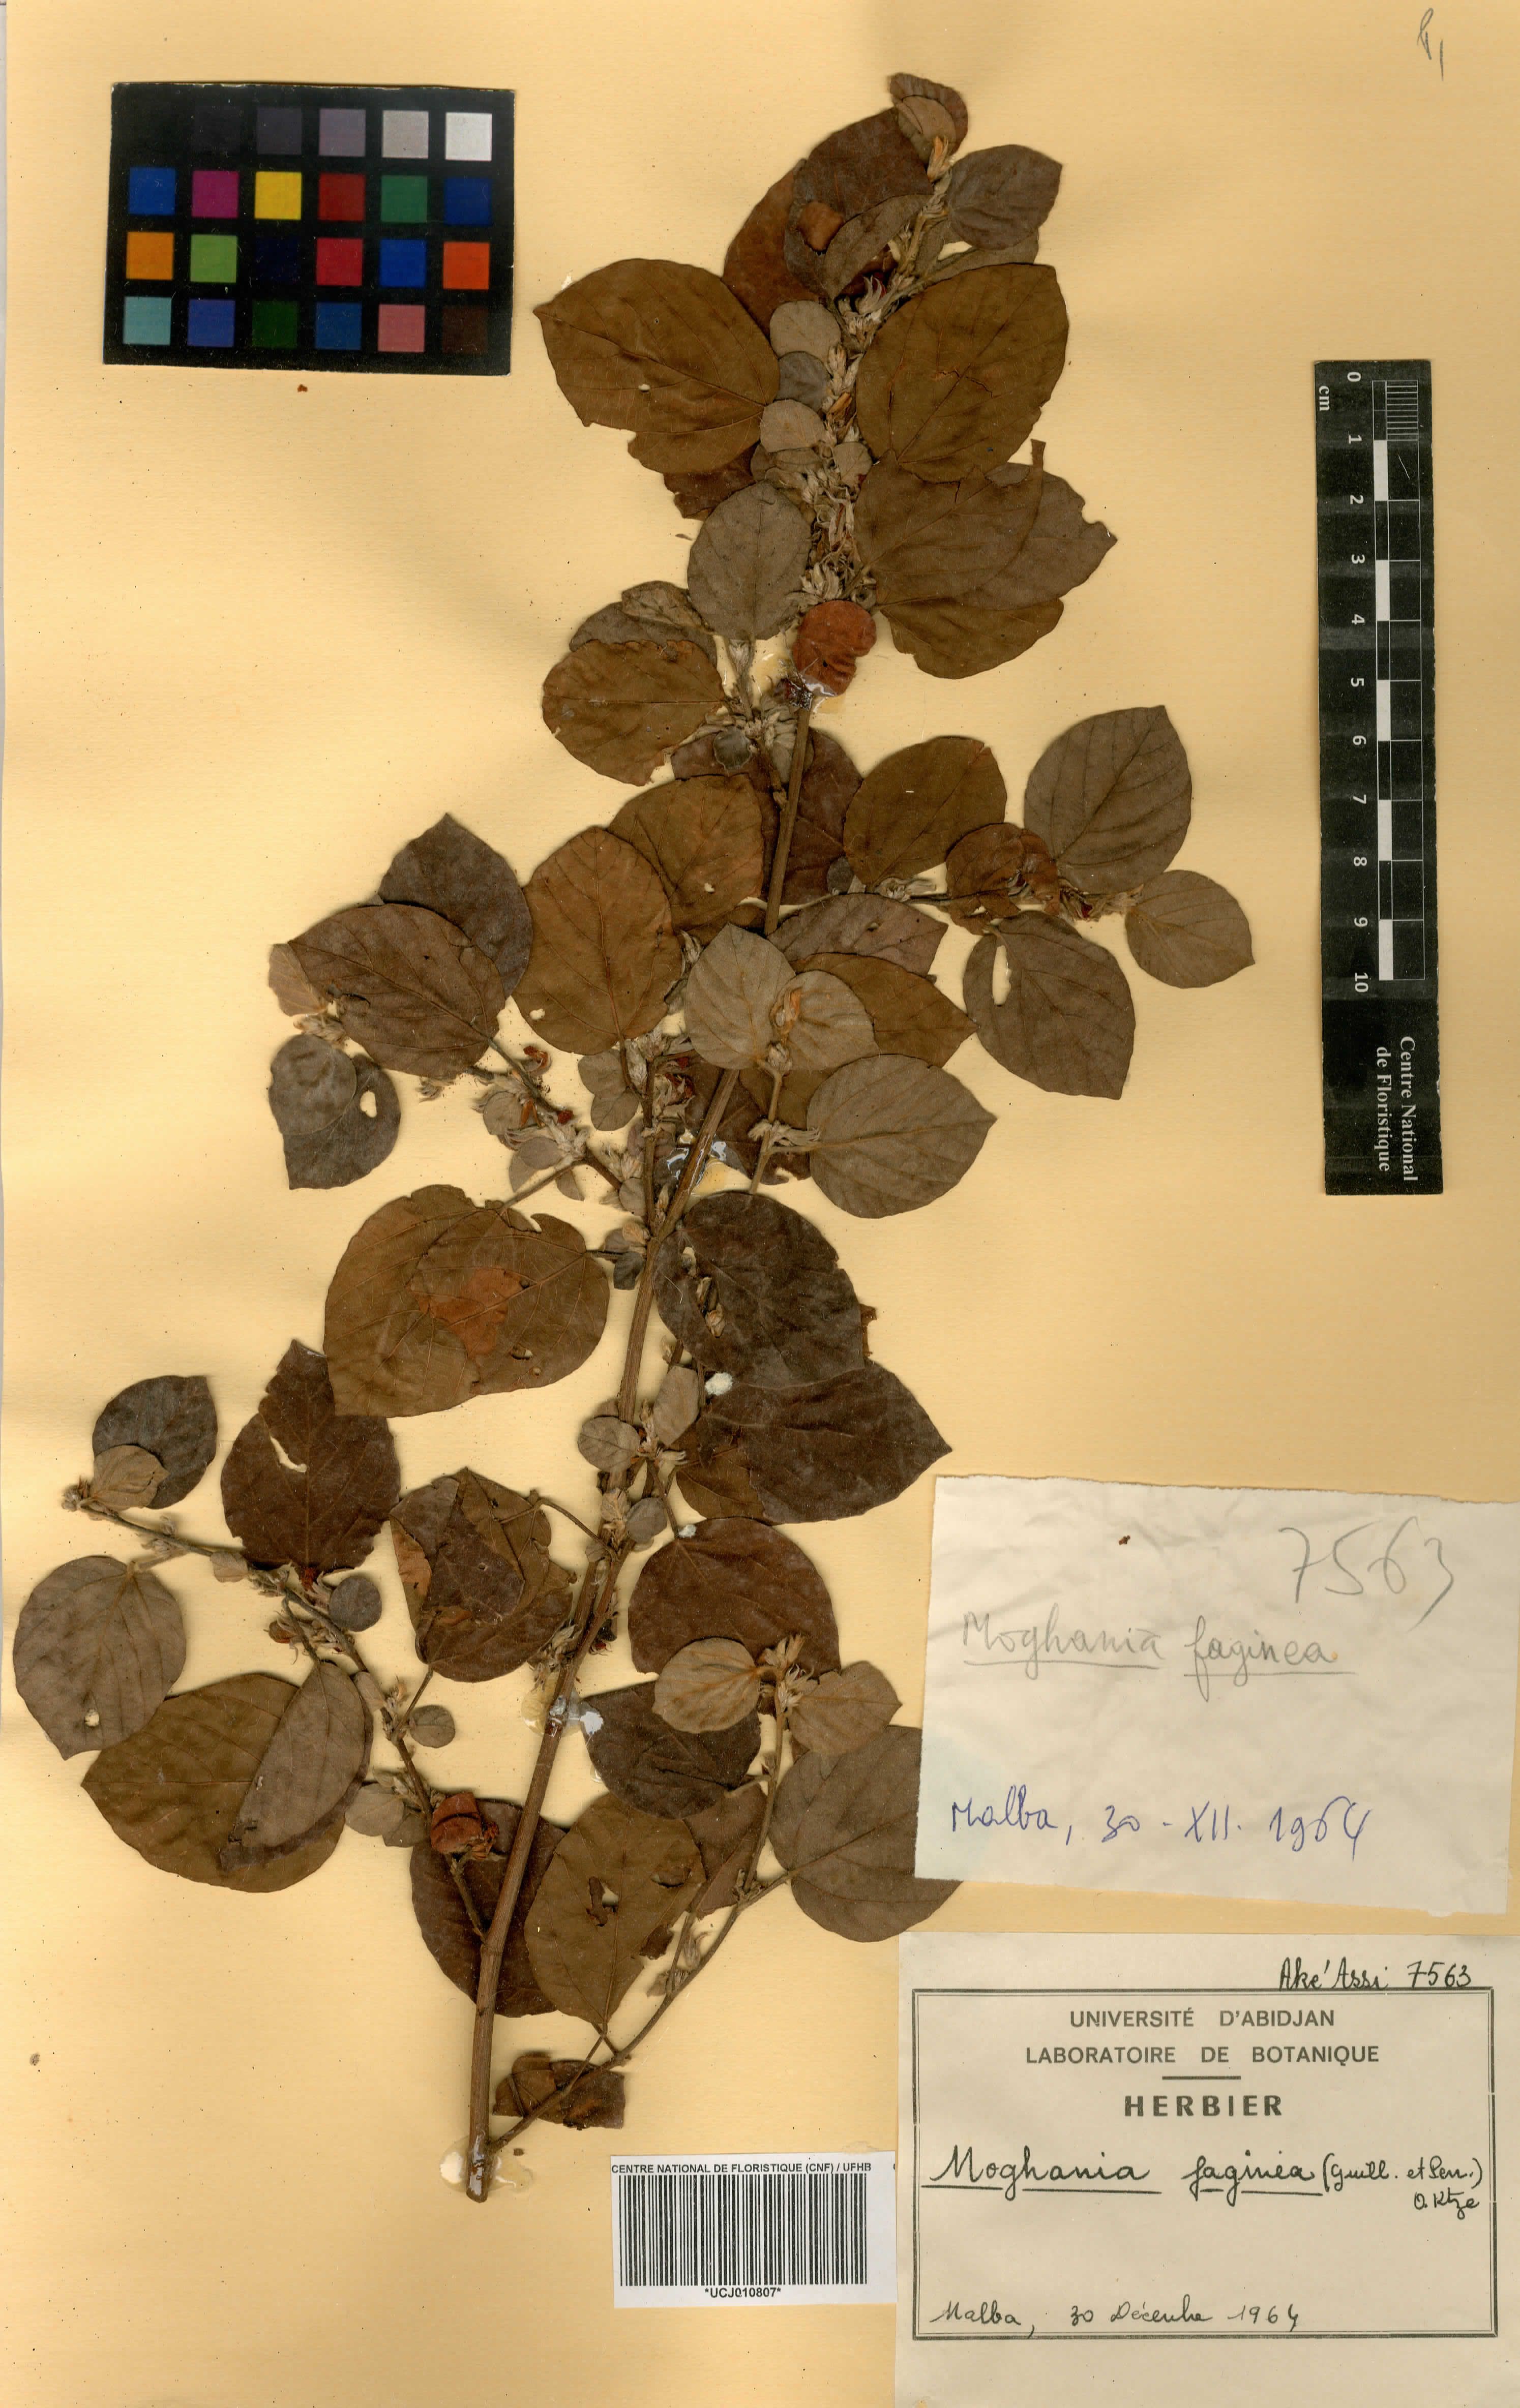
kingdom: Plantae
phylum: Tracheophyta
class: Magnoliopsida
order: Fabales
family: Fabaceae
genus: Flemingia
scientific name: Flemingia faginea
